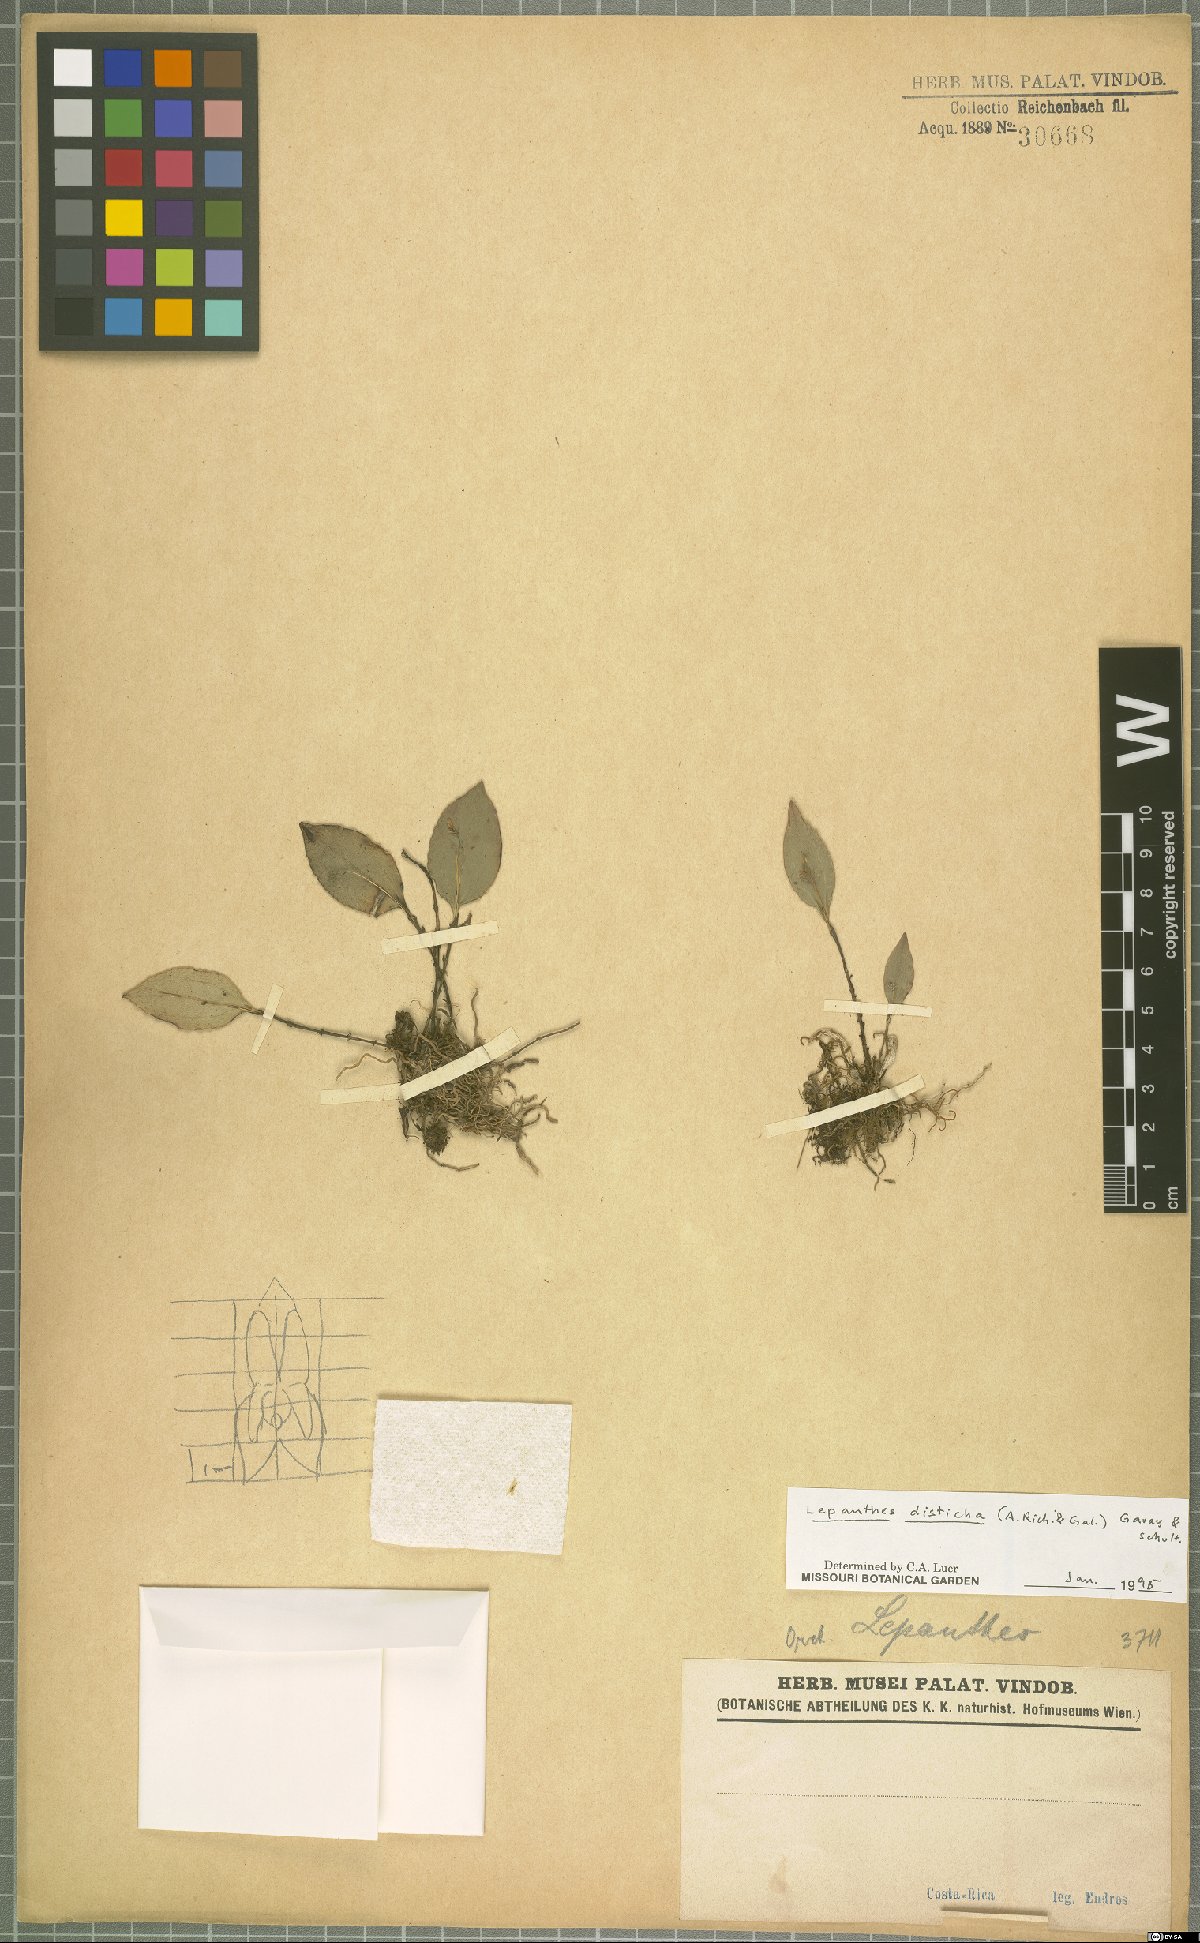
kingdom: Plantae
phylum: Tracheophyta
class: Liliopsida
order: Asparagales
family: Orchidaceae
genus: Lepanthes
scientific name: Lepanthes disticha
